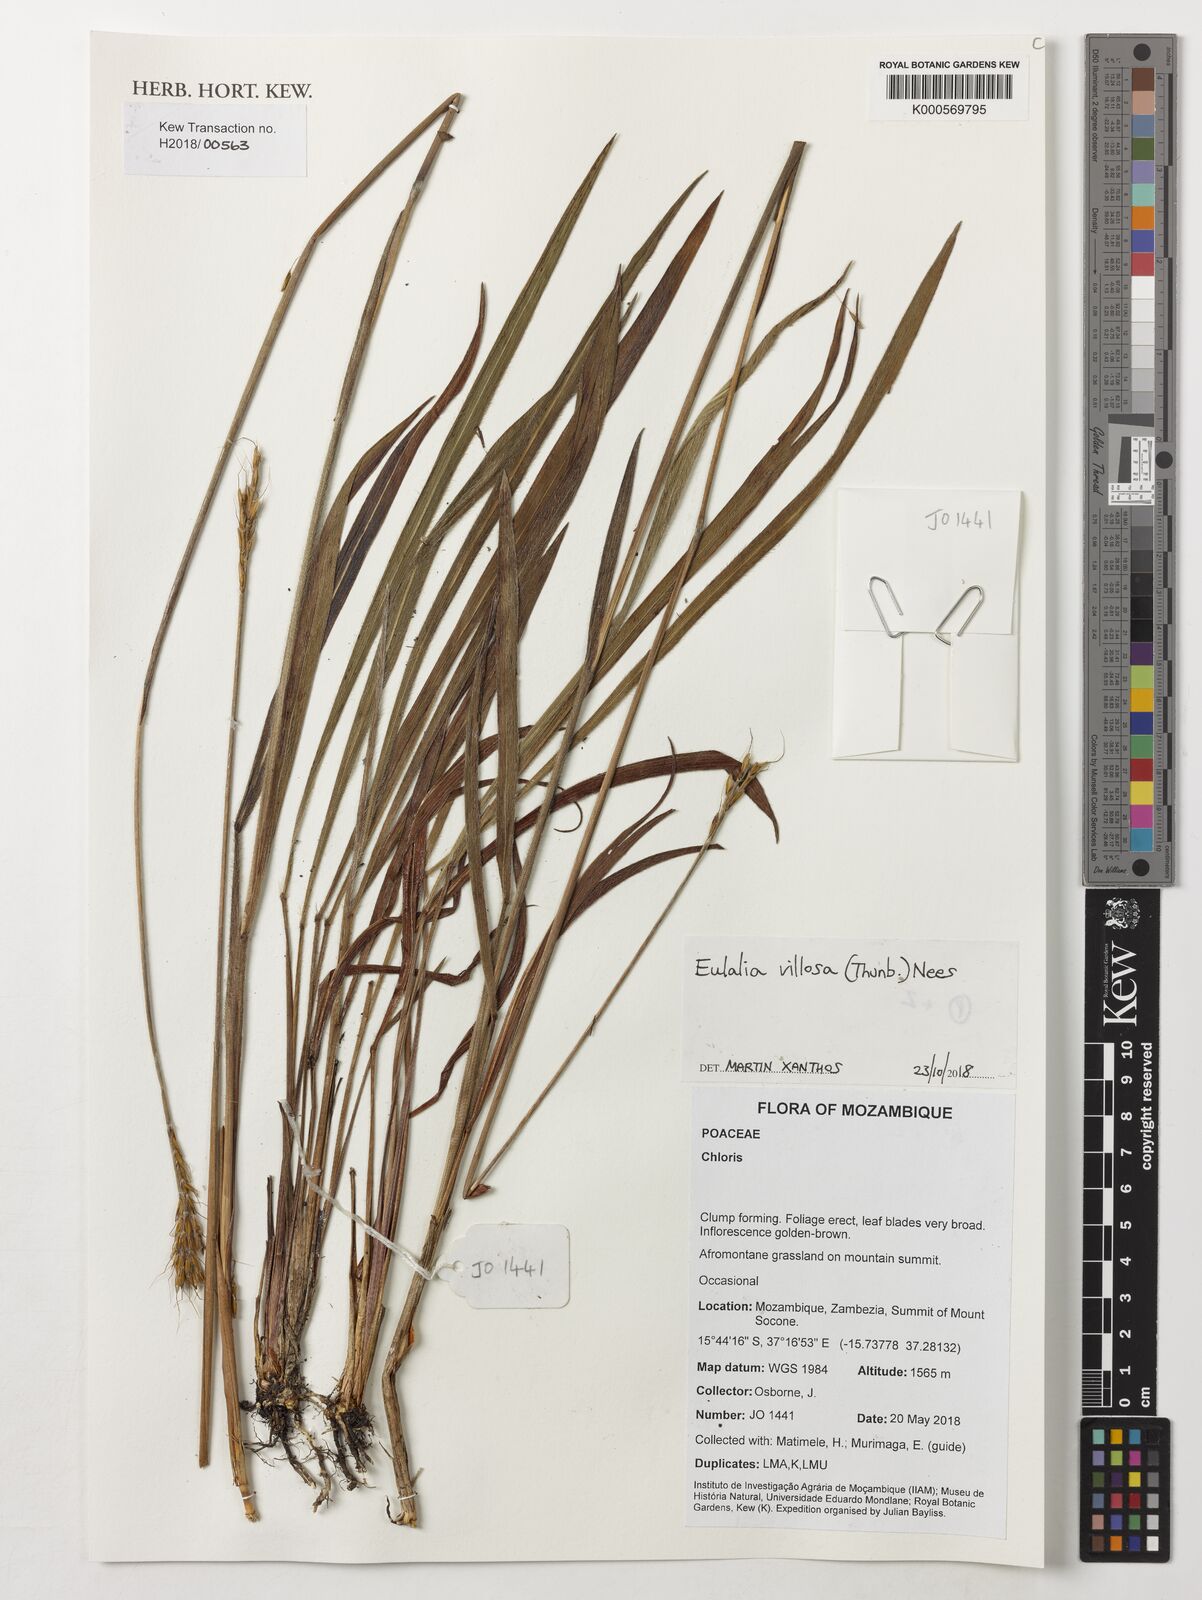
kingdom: Plantae
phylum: Tracheophyta
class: Liliopsida
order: Poales
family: Poaceae
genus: Eulalia
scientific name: Eulalia villosa
